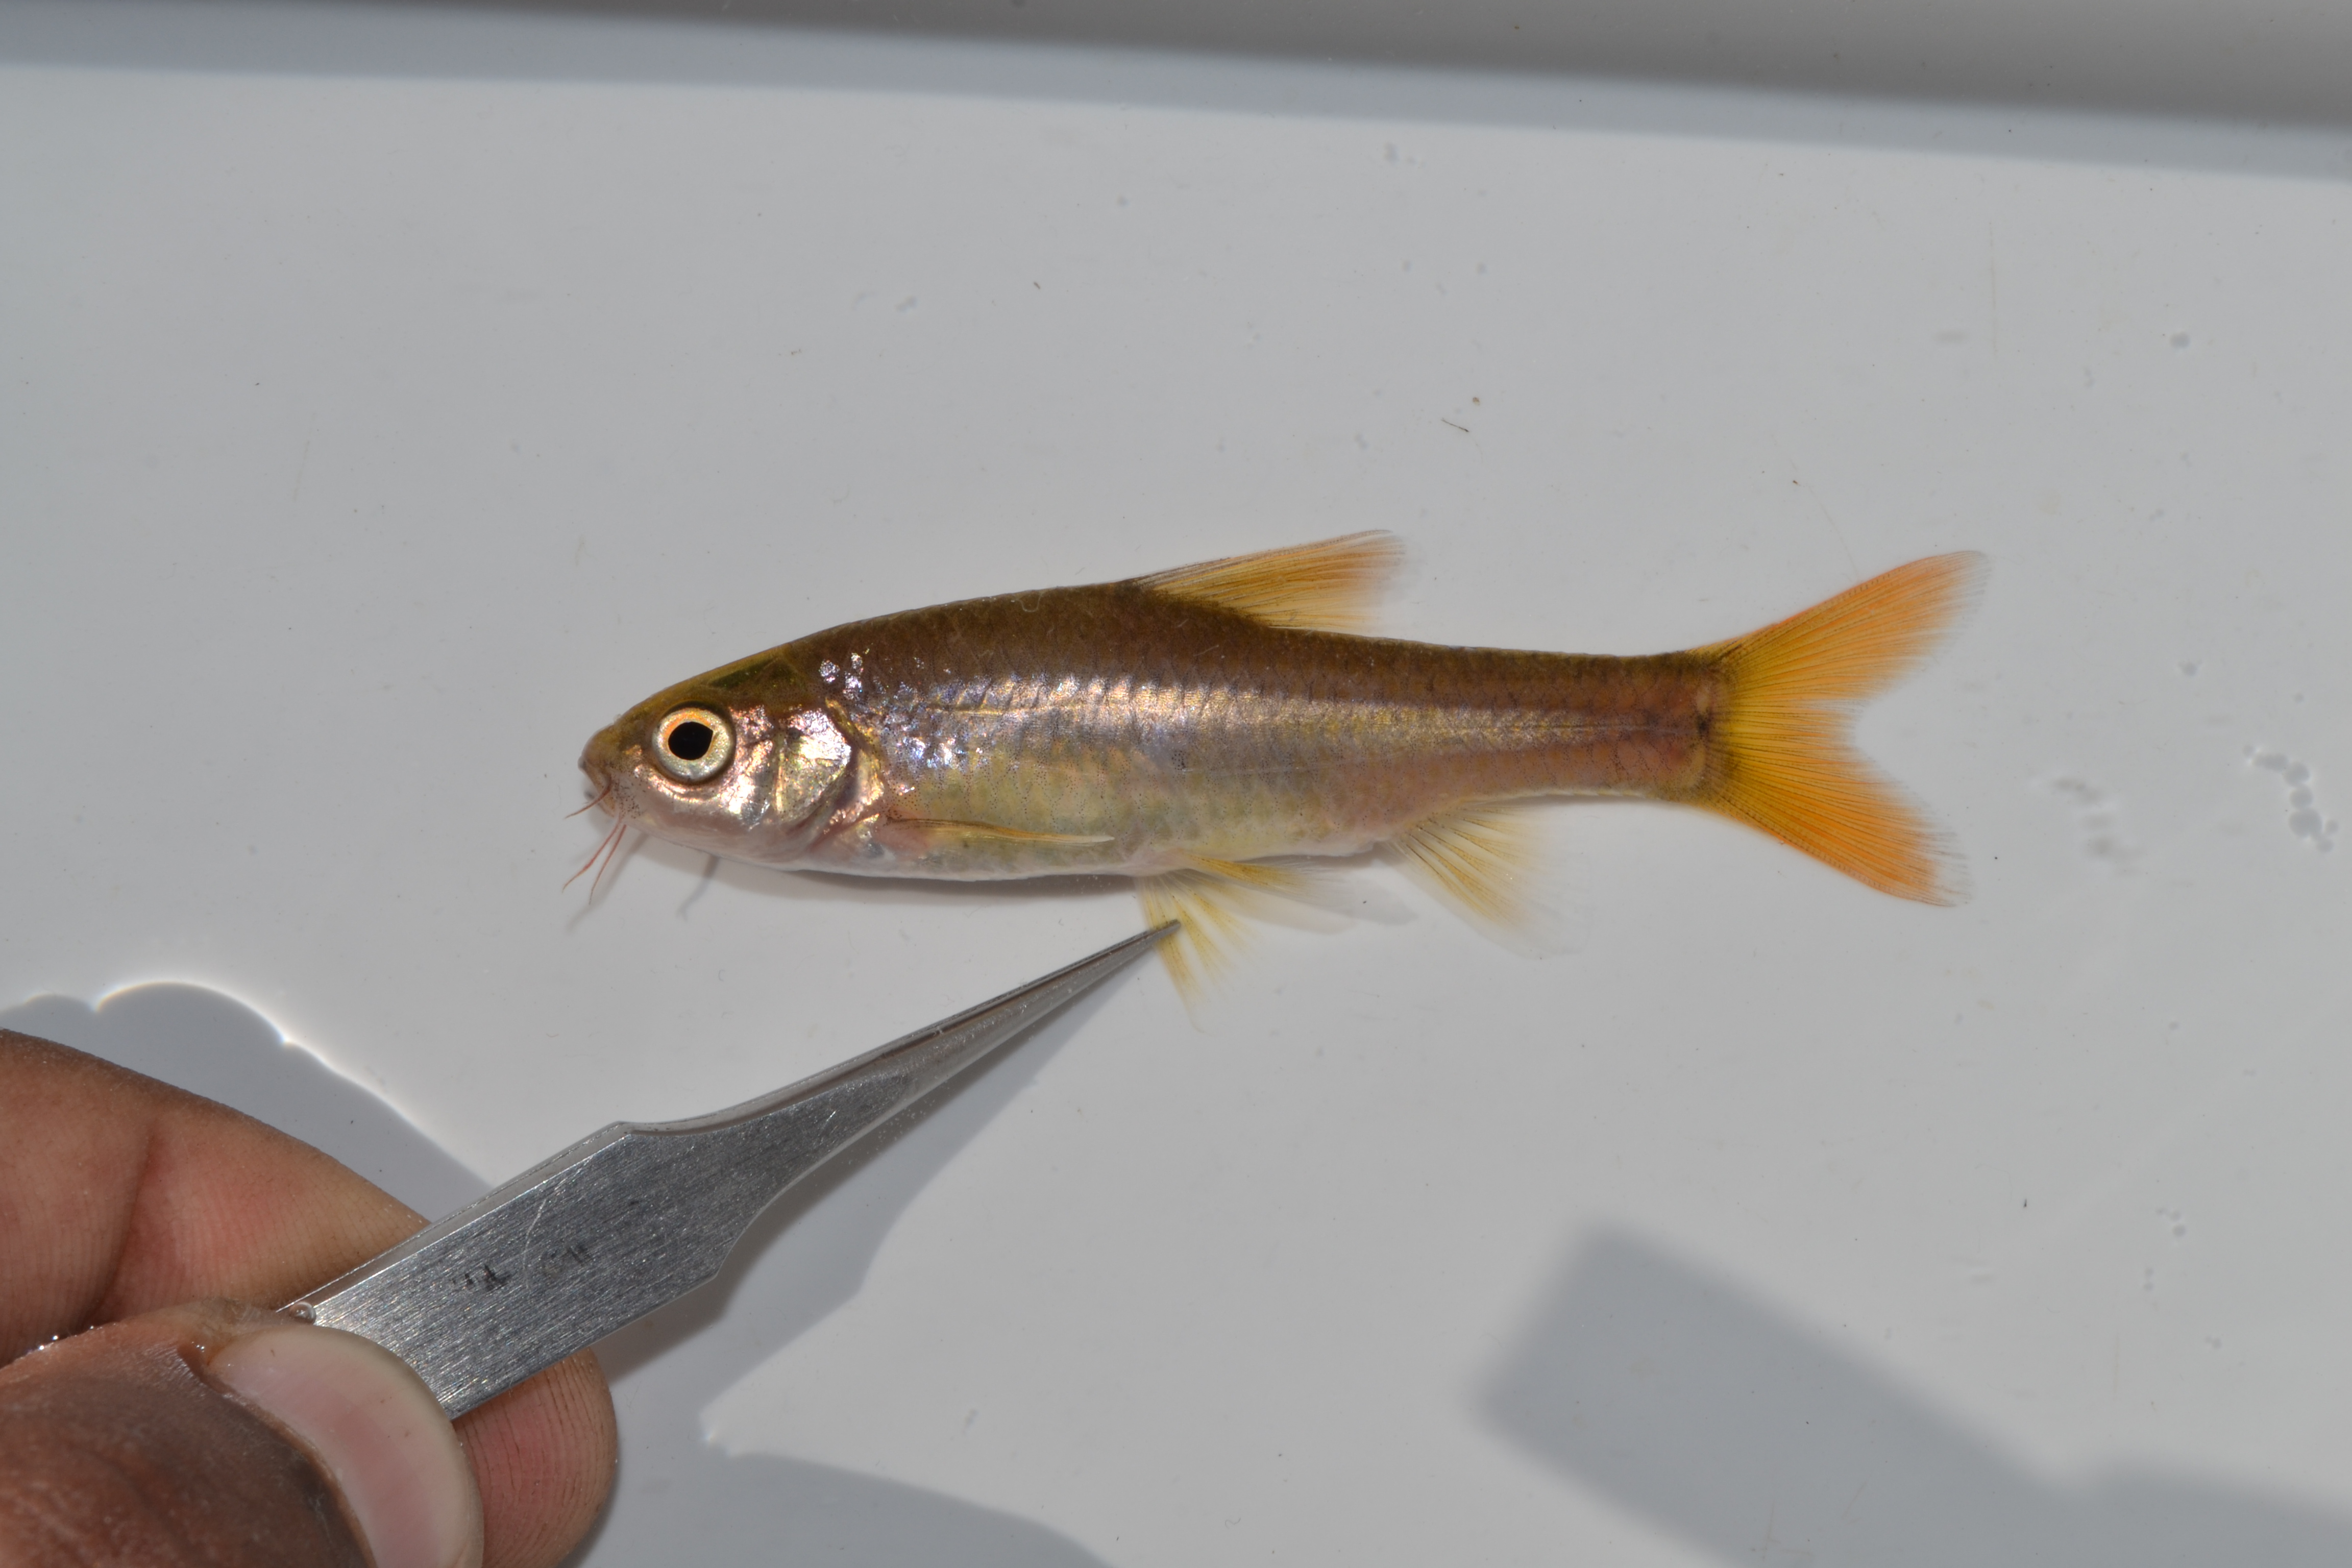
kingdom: Animalia
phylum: Chordata
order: Cypriniformes
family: Cyprinidae
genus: Enteromius
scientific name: Enteromius anoplus
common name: Chubbyhead barb
